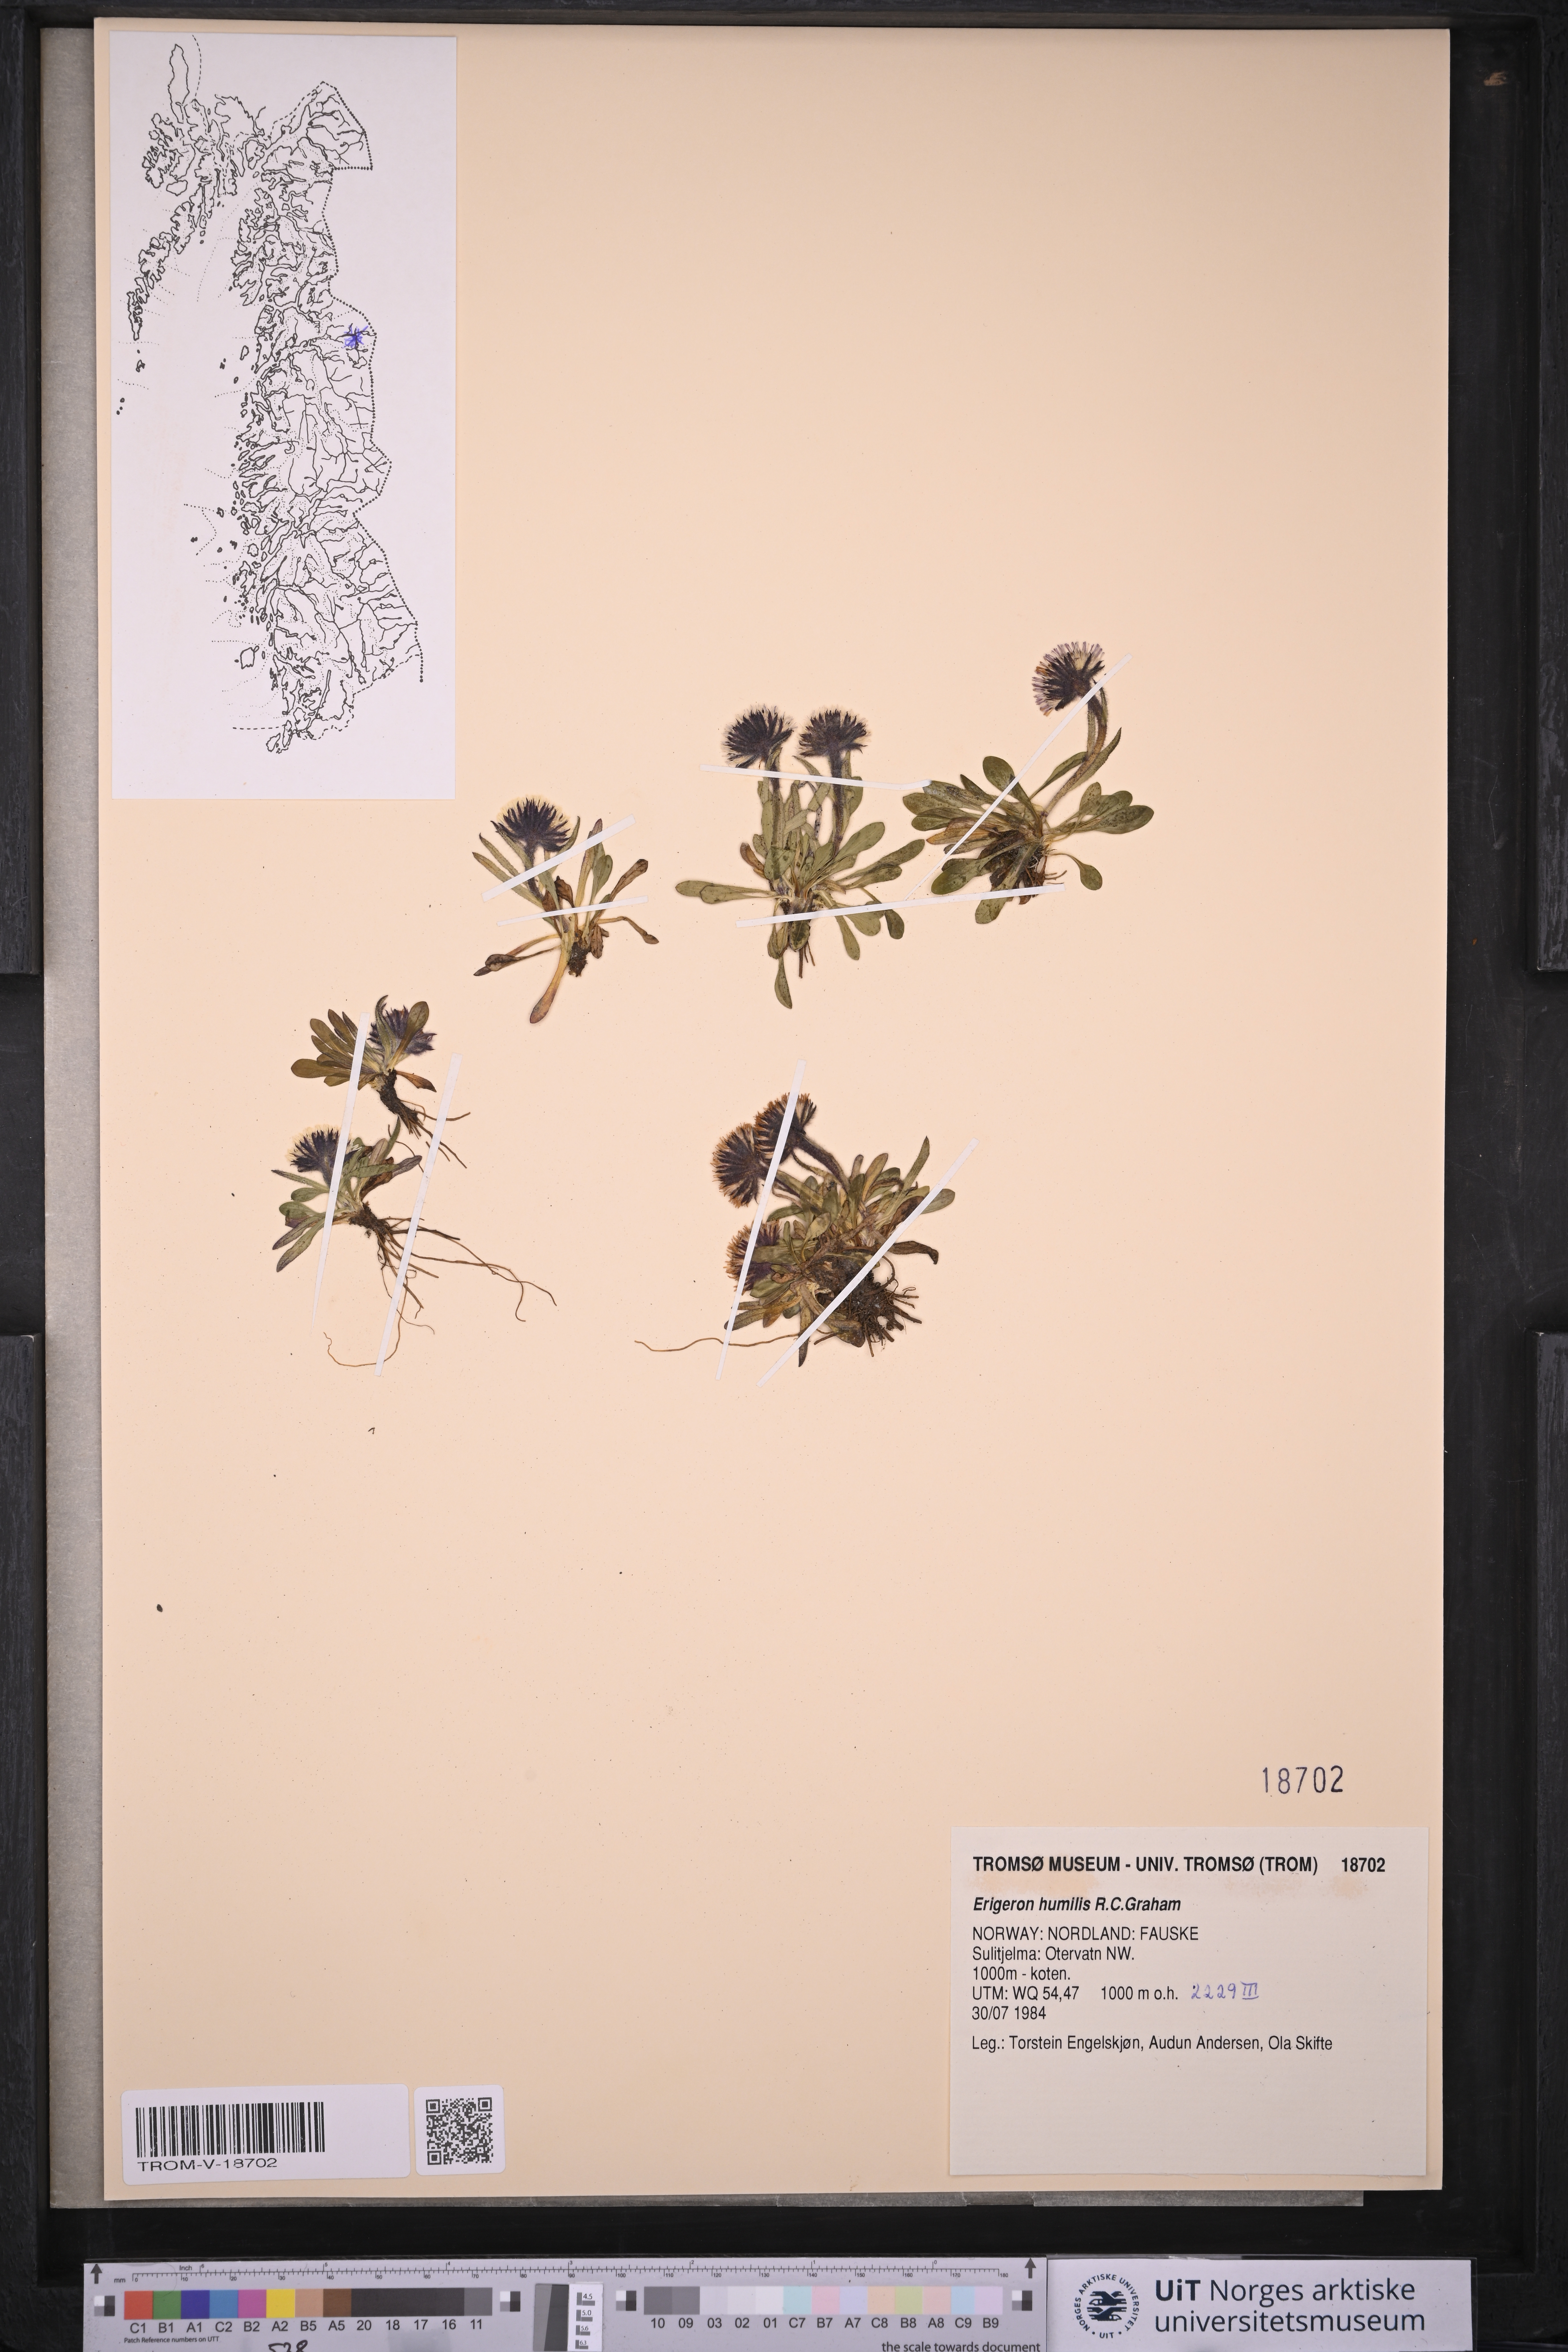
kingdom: Plantae
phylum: Tracheophyta
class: Magnoliopsida
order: Asterales
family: Asteraceae
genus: Erigeron
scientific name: Erigeron humilis
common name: Arctic-alpine fleabane
